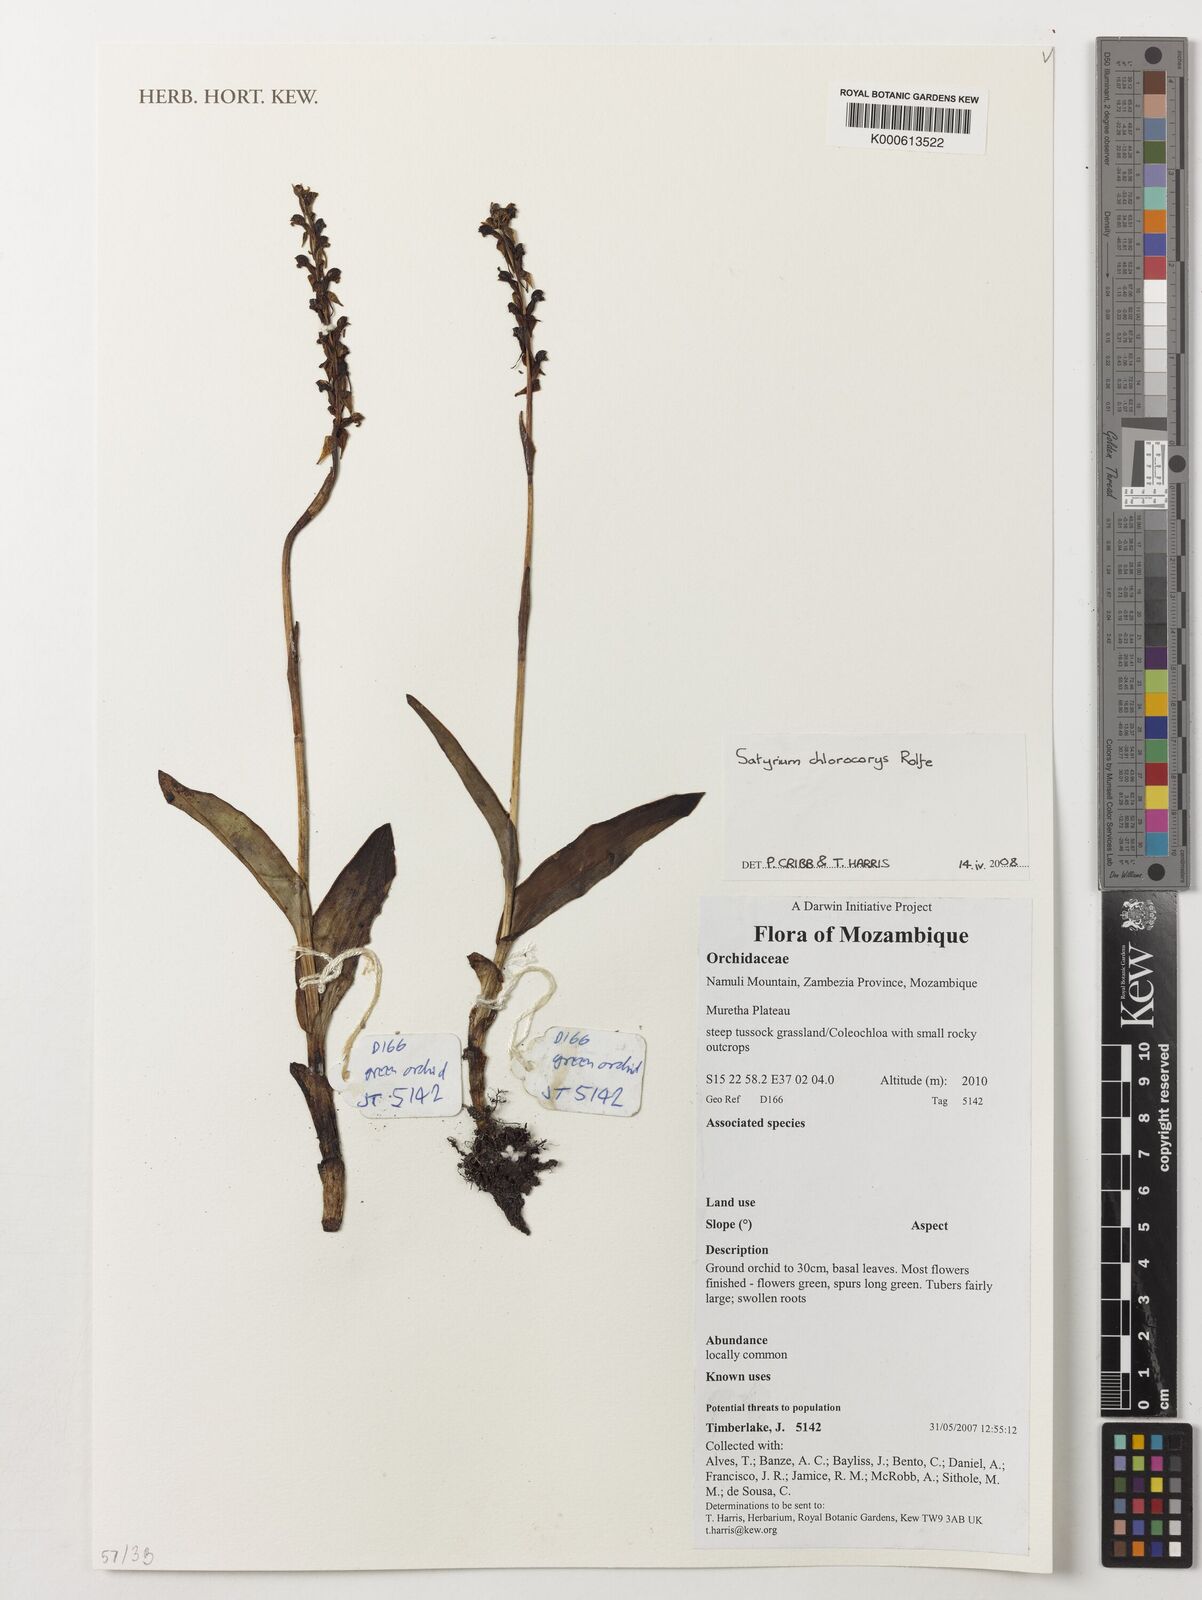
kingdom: Plantae
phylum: Tracheophyta
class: Liliopsida
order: Asparagales
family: Orchidaceae
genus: Satyrium
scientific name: Satyrium chlorocorys
